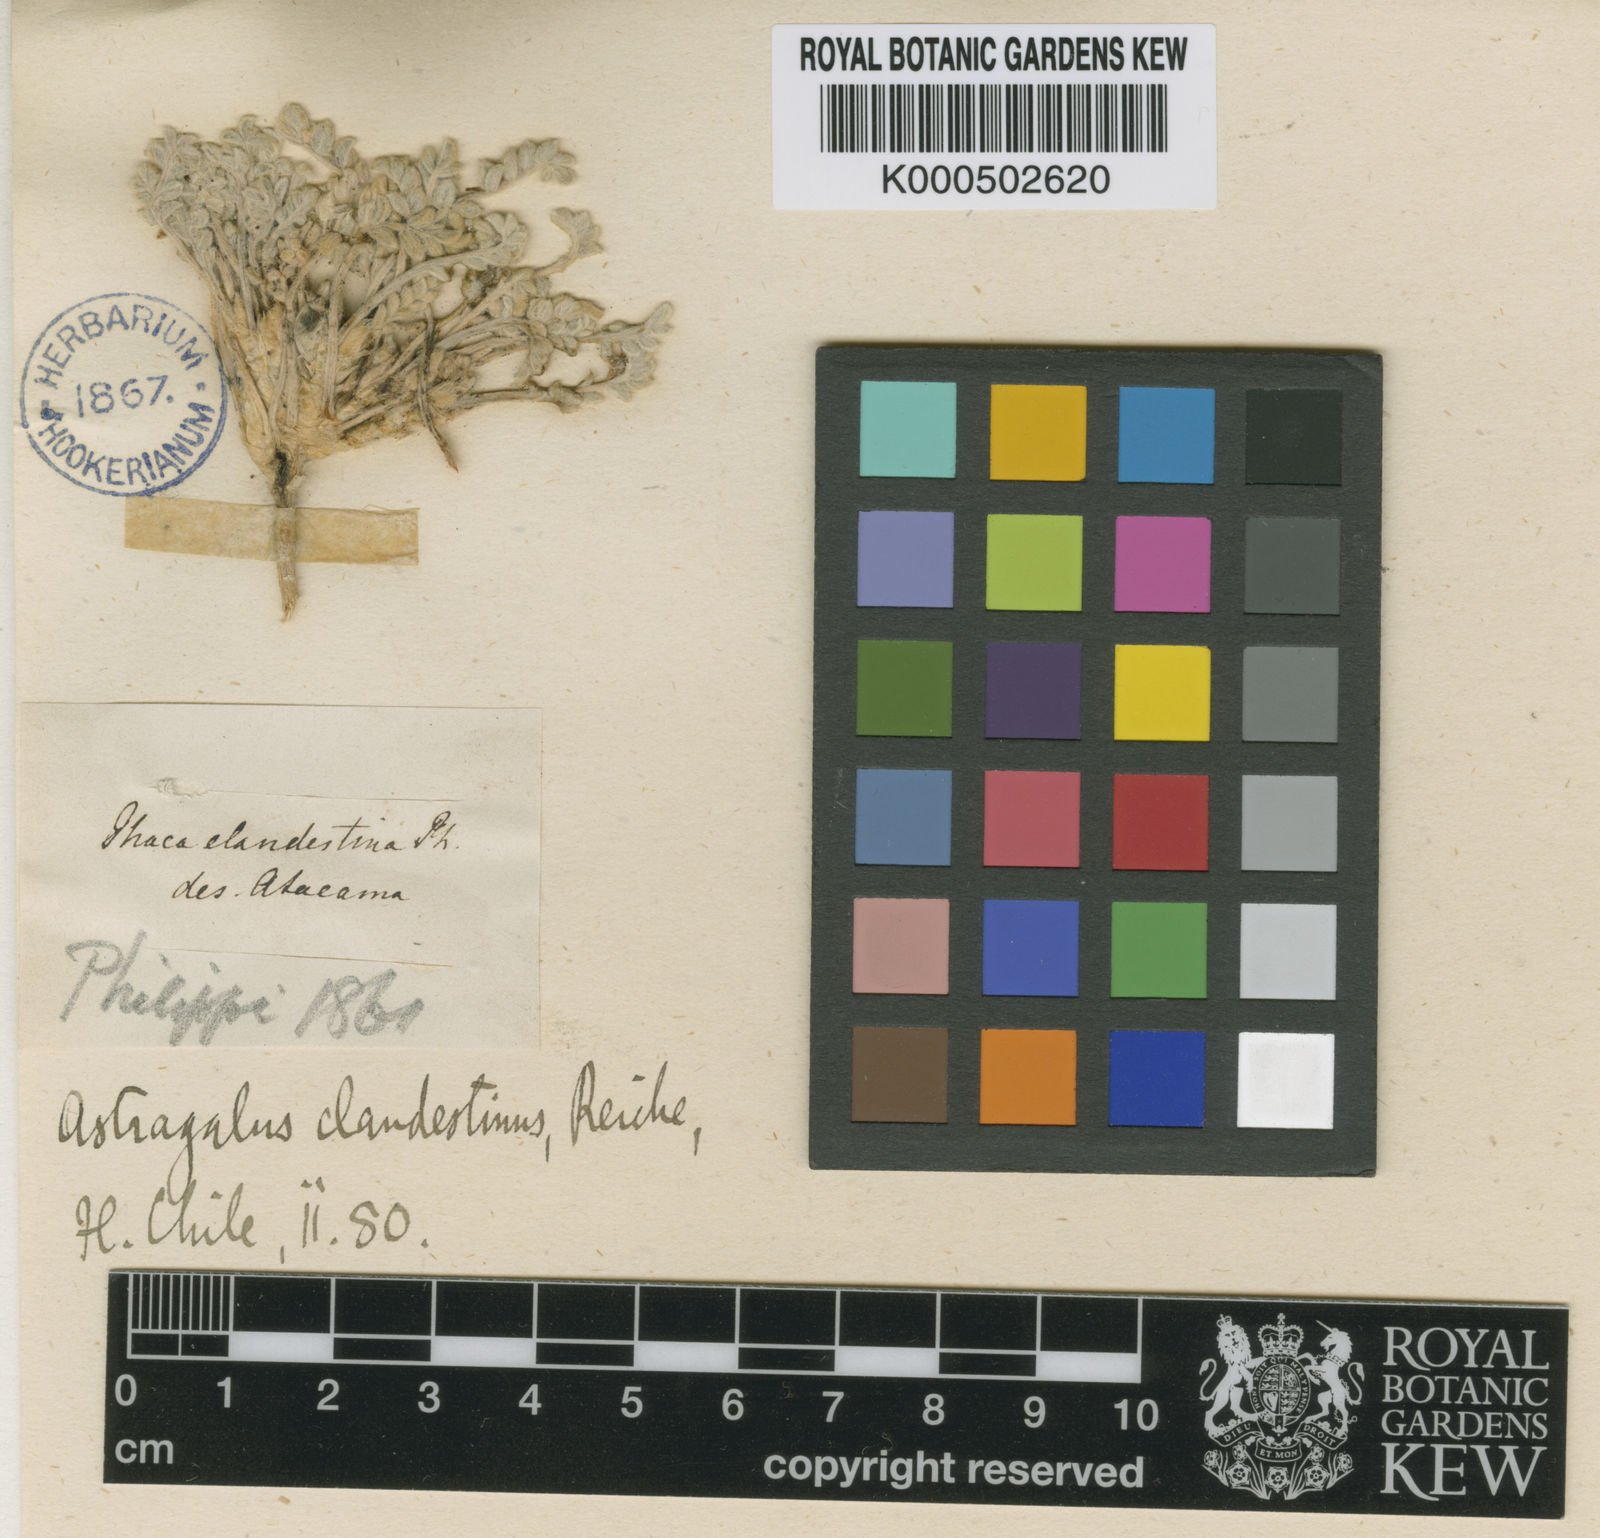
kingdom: Plantae
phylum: Tracheophyta
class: Magnoliopsida
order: Fabales
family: Fabaceae
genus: Astragalus
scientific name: Astragalus
